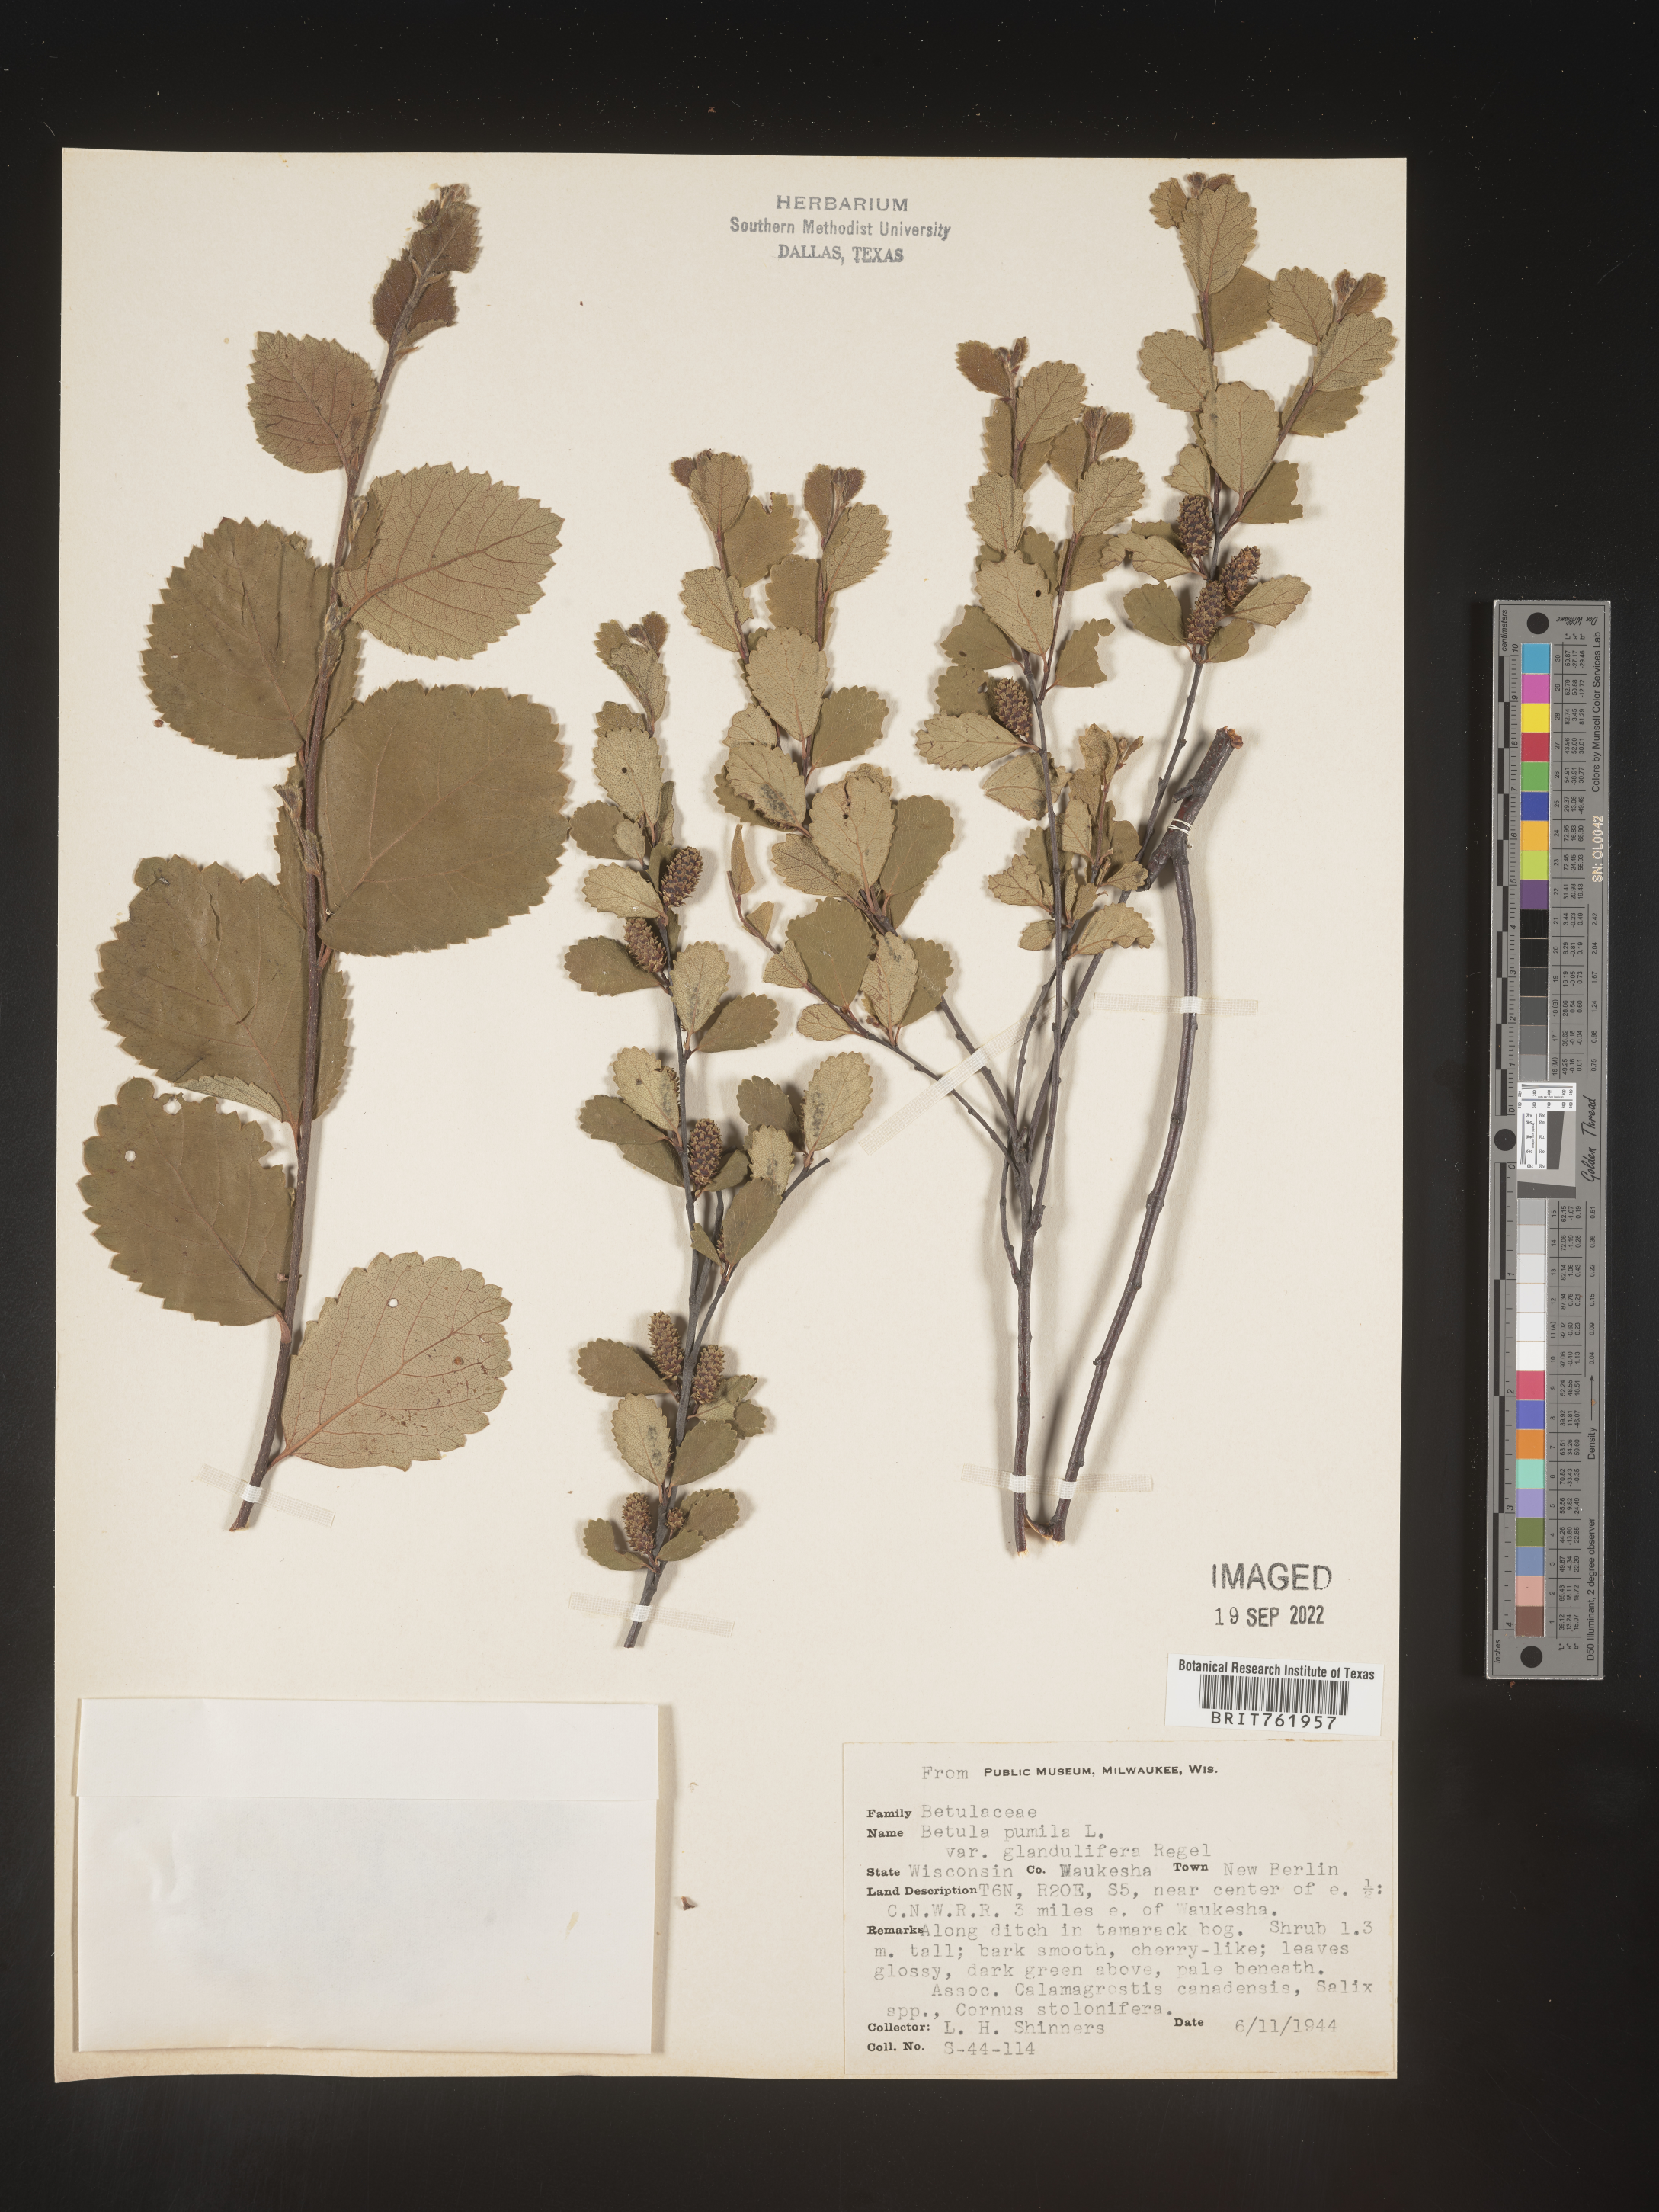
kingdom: Plantae
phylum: Tracheophyta
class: Magnoliopsida
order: Fagales
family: Betulaceae
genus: Betula
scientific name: Betula pumila
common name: Bog birch
